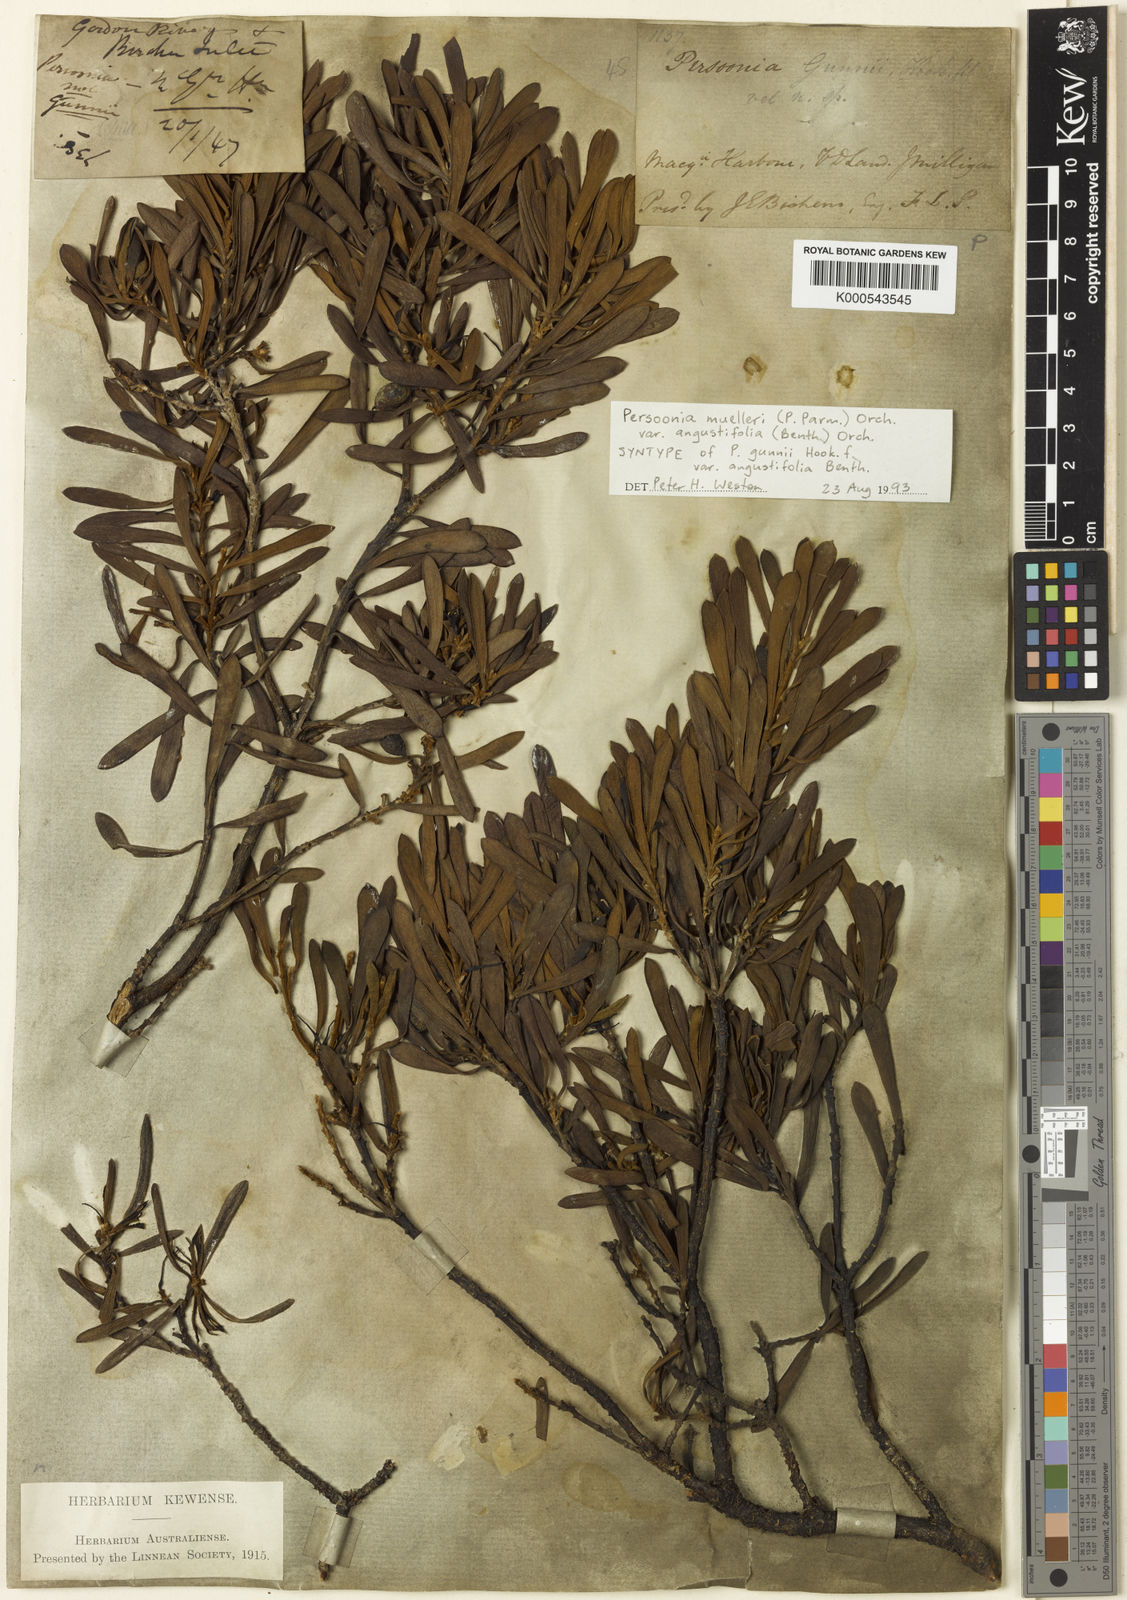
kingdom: Plantae
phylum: Tracheophyta
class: Magnoliopsida
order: Proteales
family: Proteaceae
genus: Persoonia
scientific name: Persoonia
